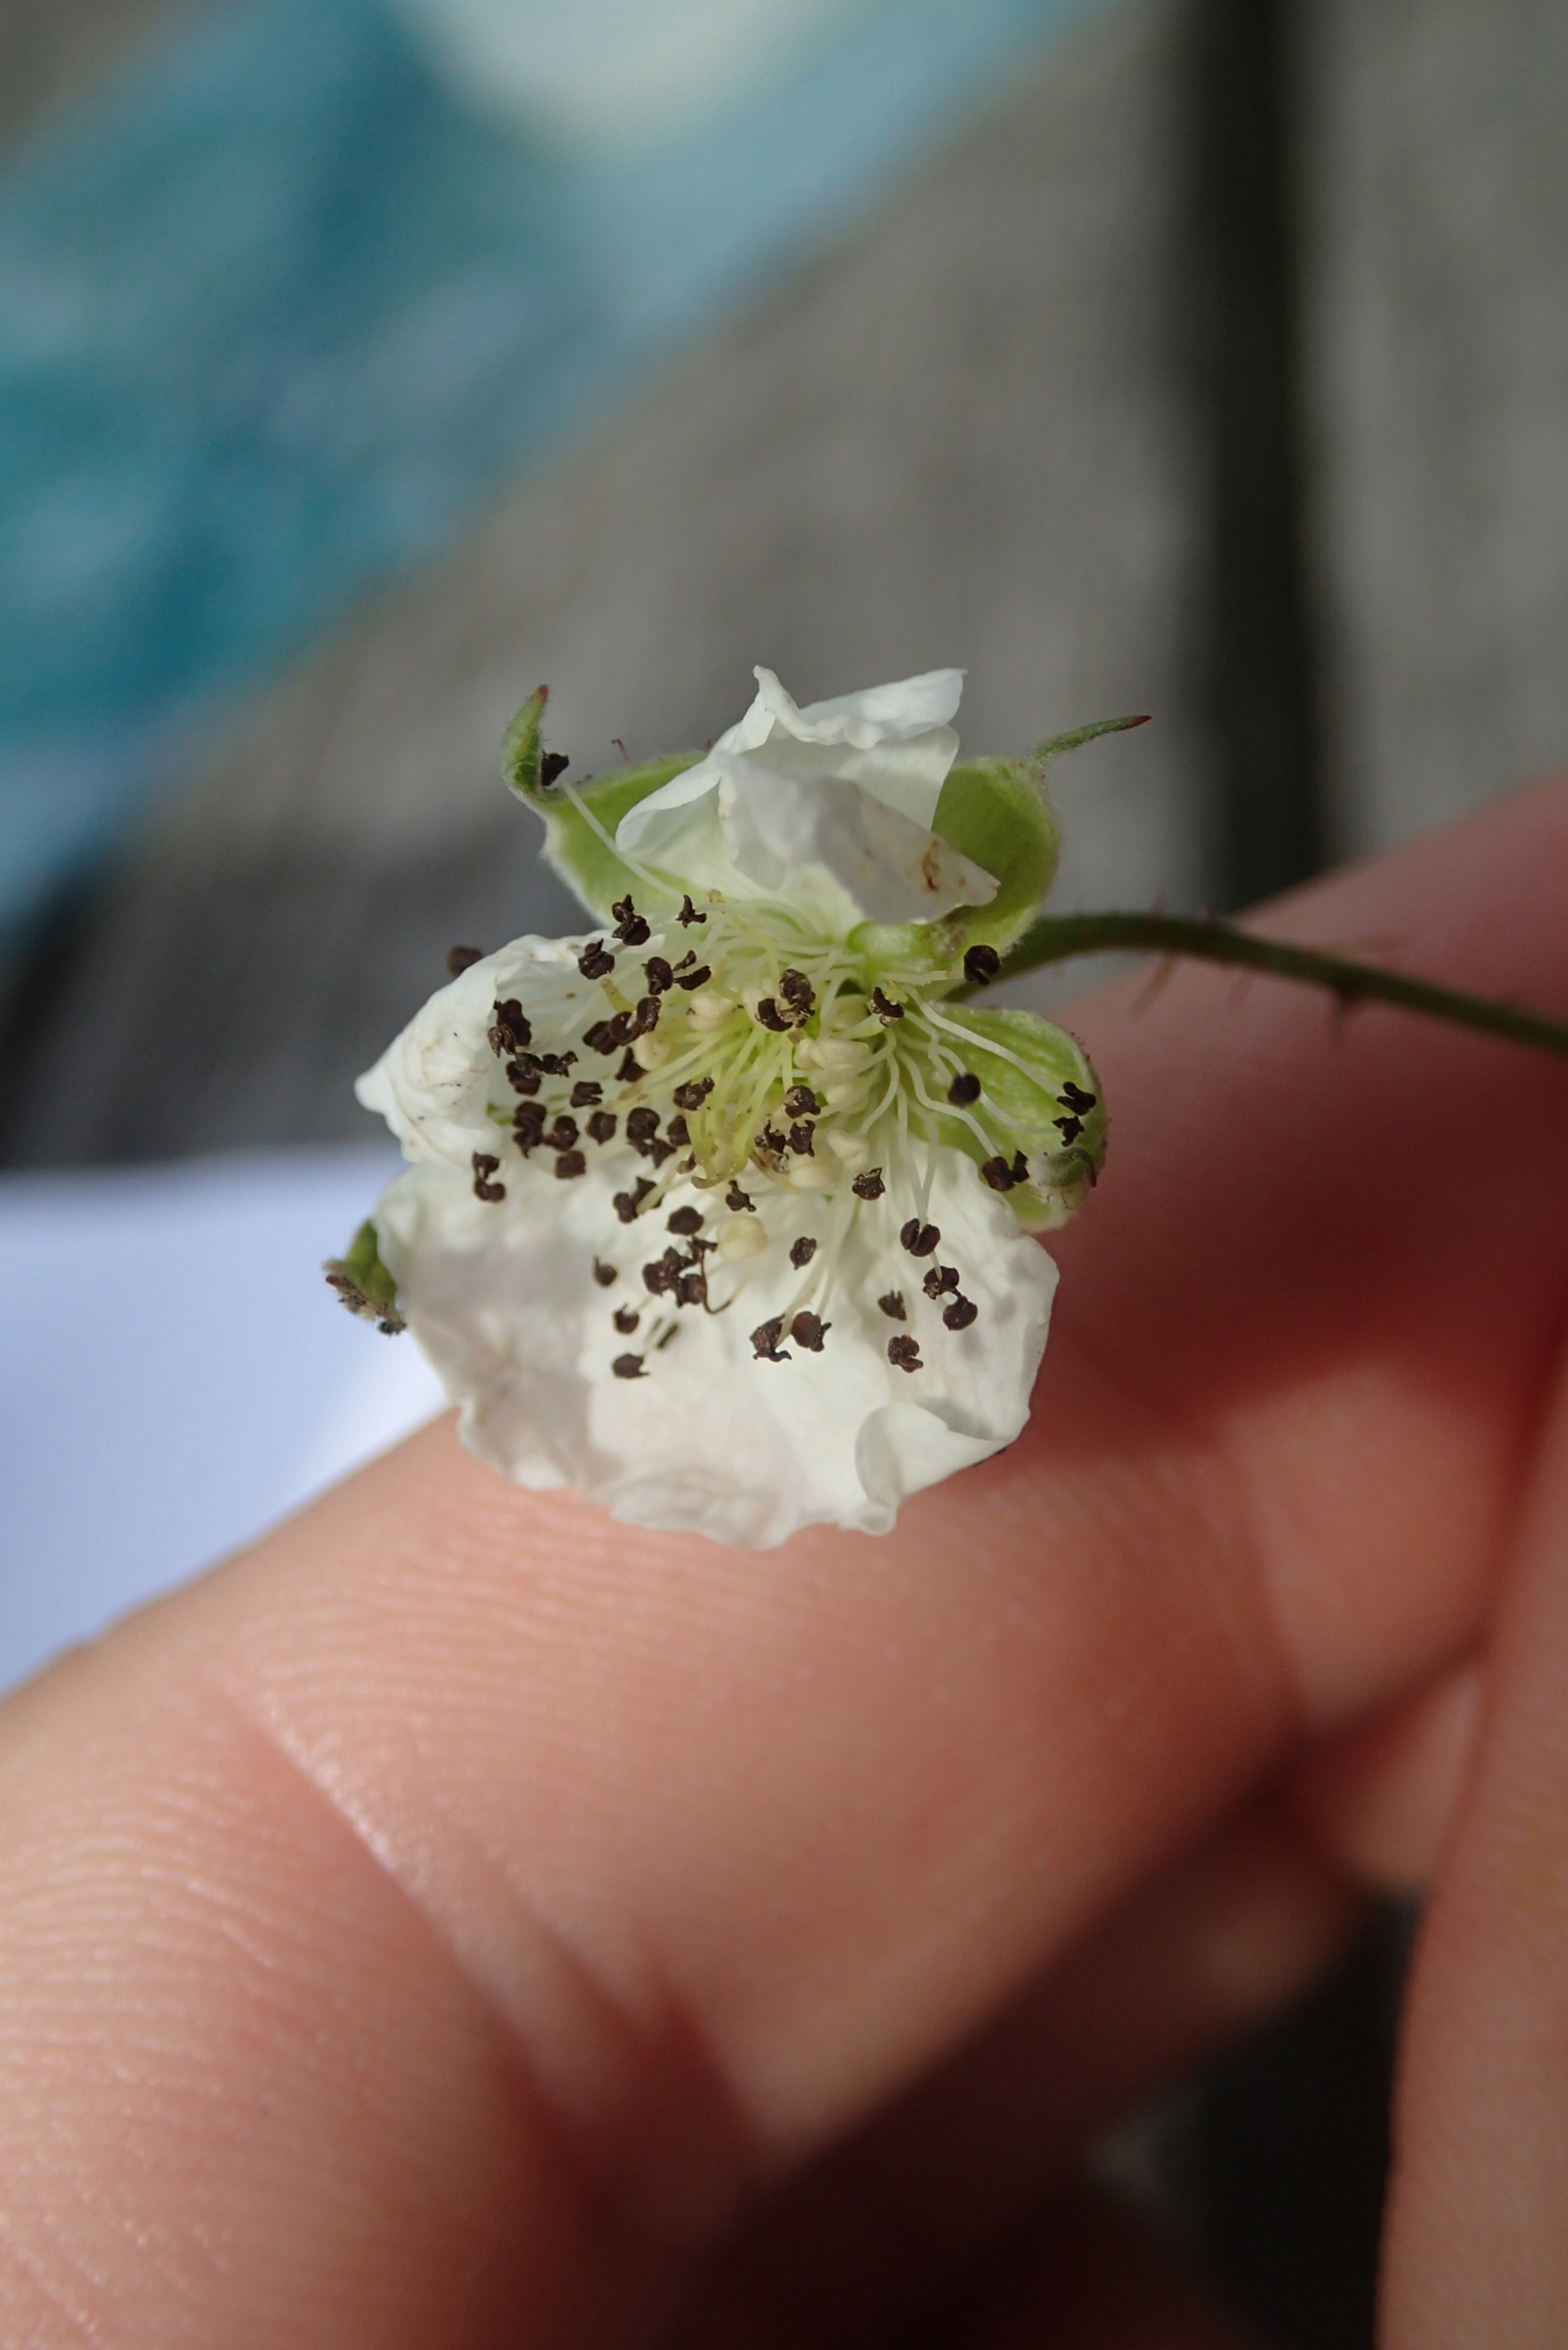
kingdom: Plantae
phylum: Tracheophyta
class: Magnoliopsida
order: Rosales
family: Rosaceae
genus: Rubus
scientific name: Rubus caesius
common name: Korbær
